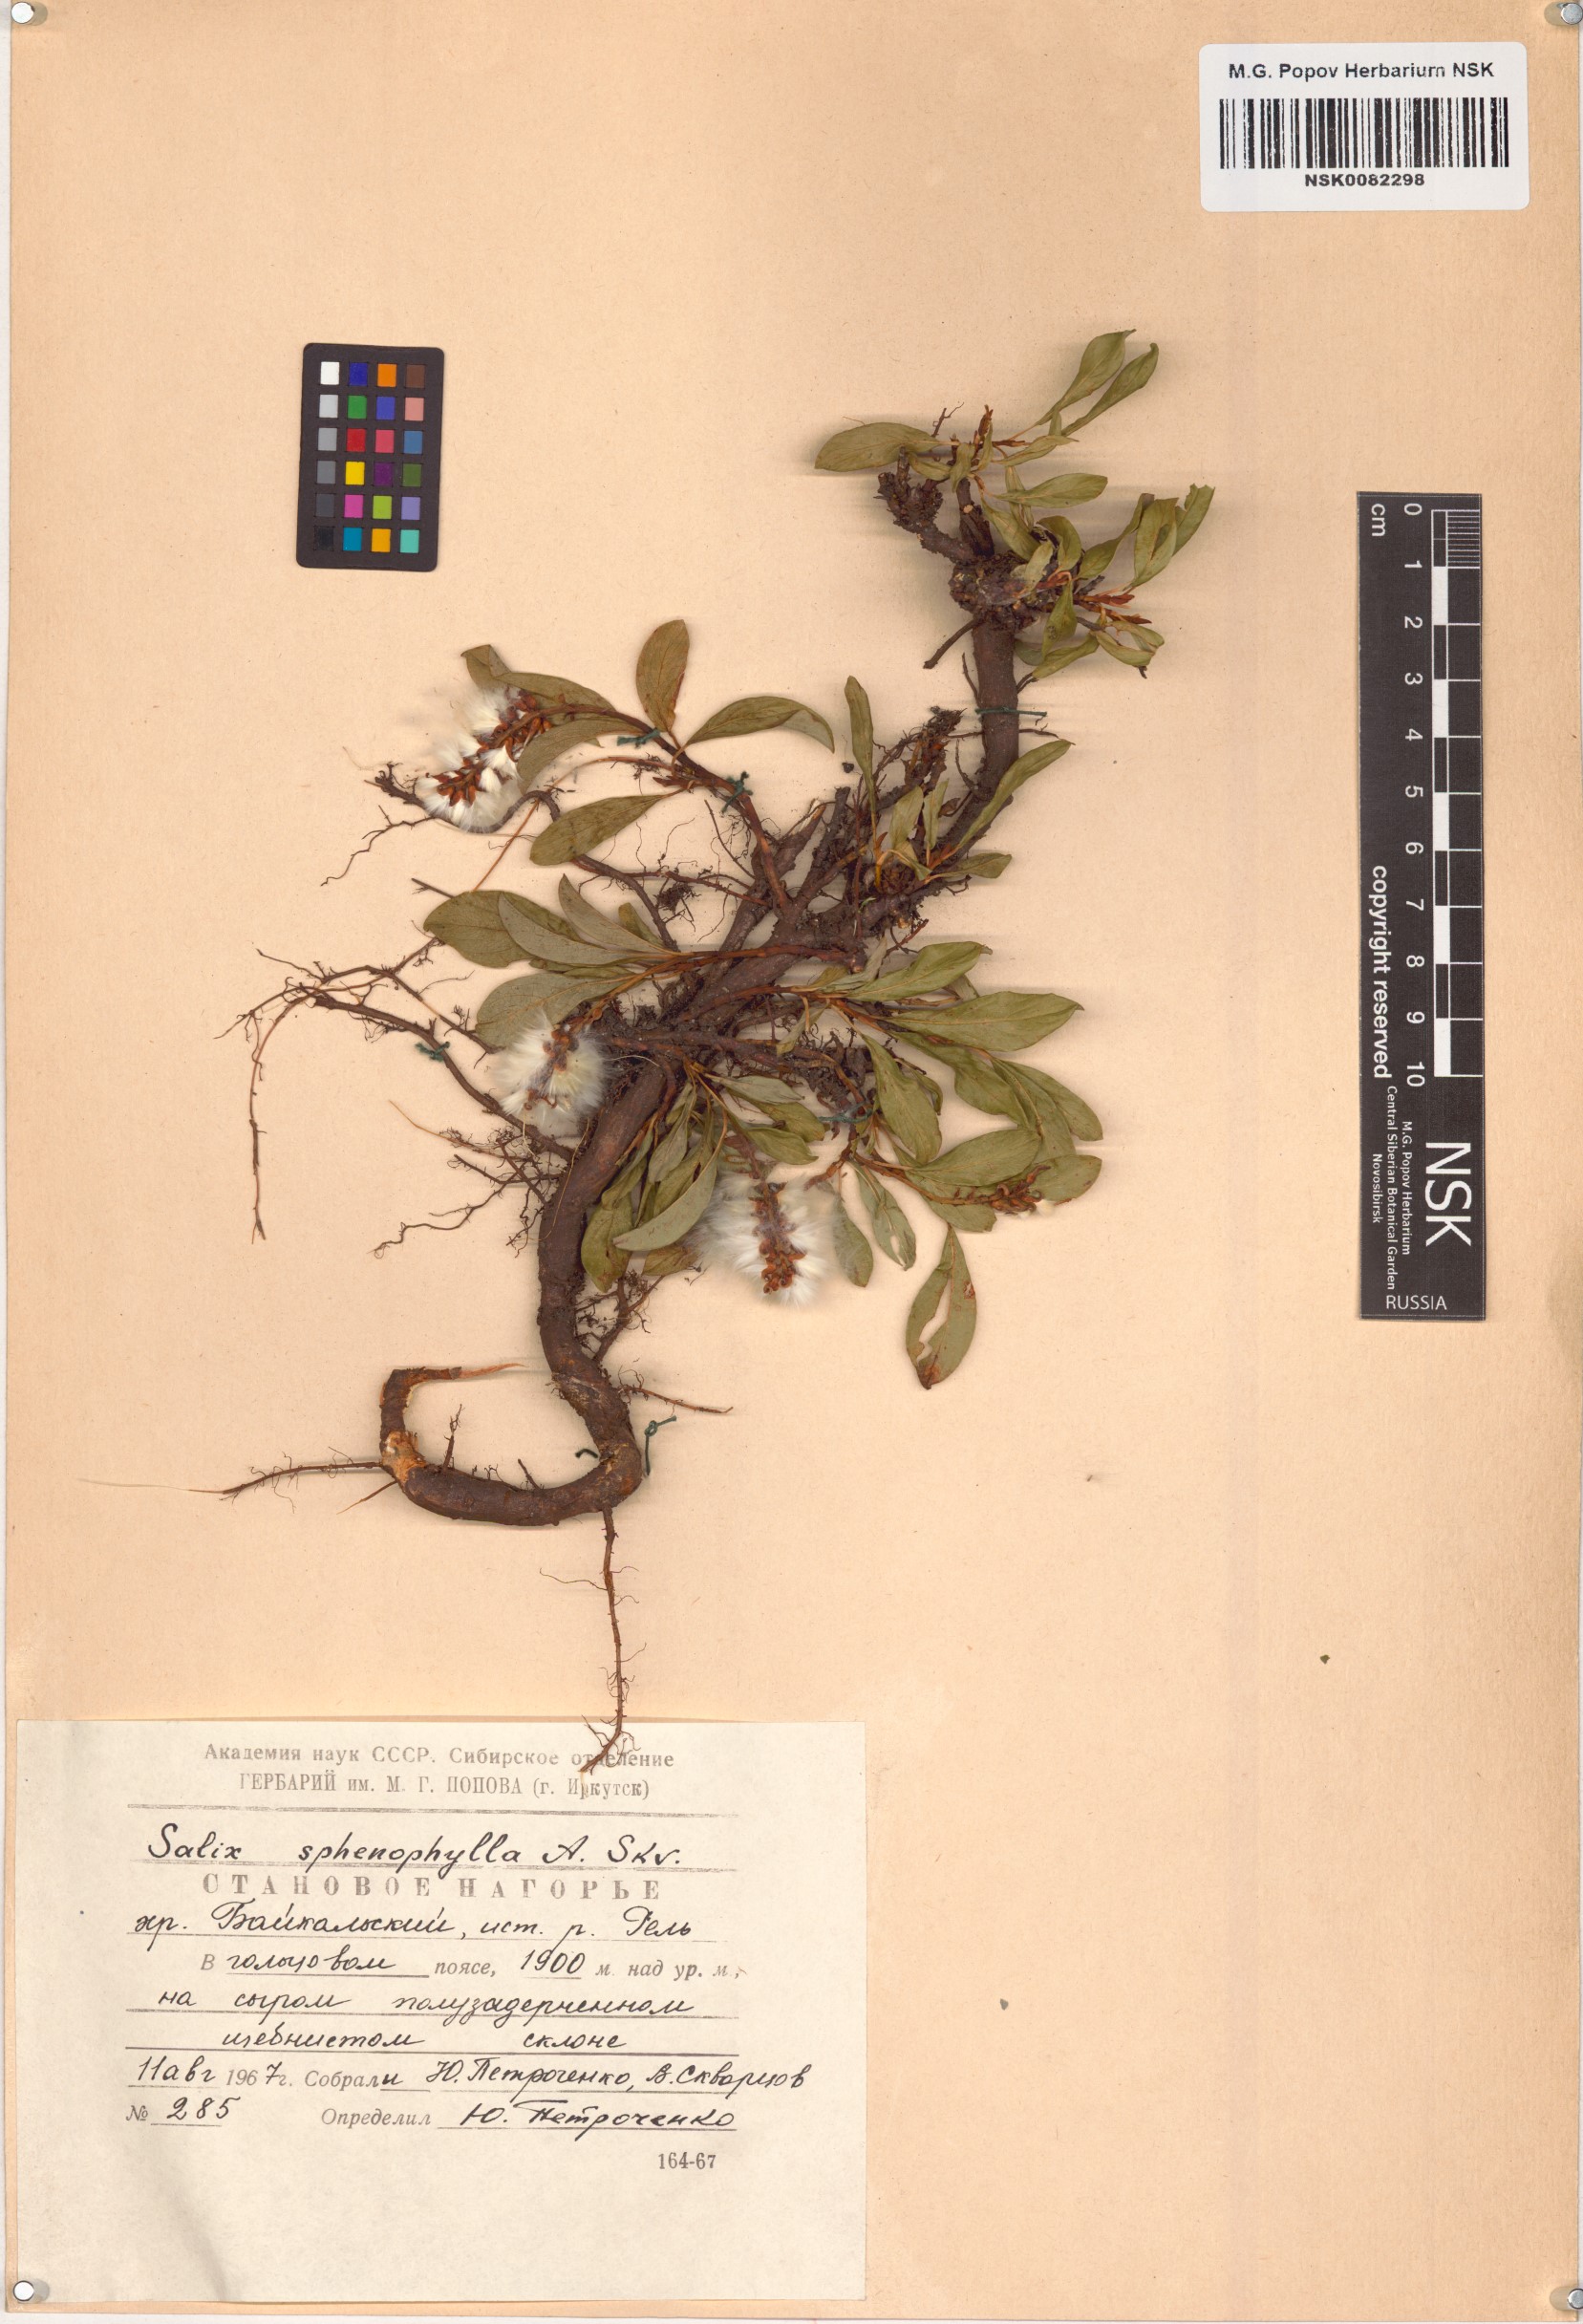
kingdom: Plantae
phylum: Tracheophyta
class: Magnoliopsida
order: Malpighiales
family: Salicaceae
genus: Salix
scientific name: Salix sphenophylla
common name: Wedge-leaved willow
